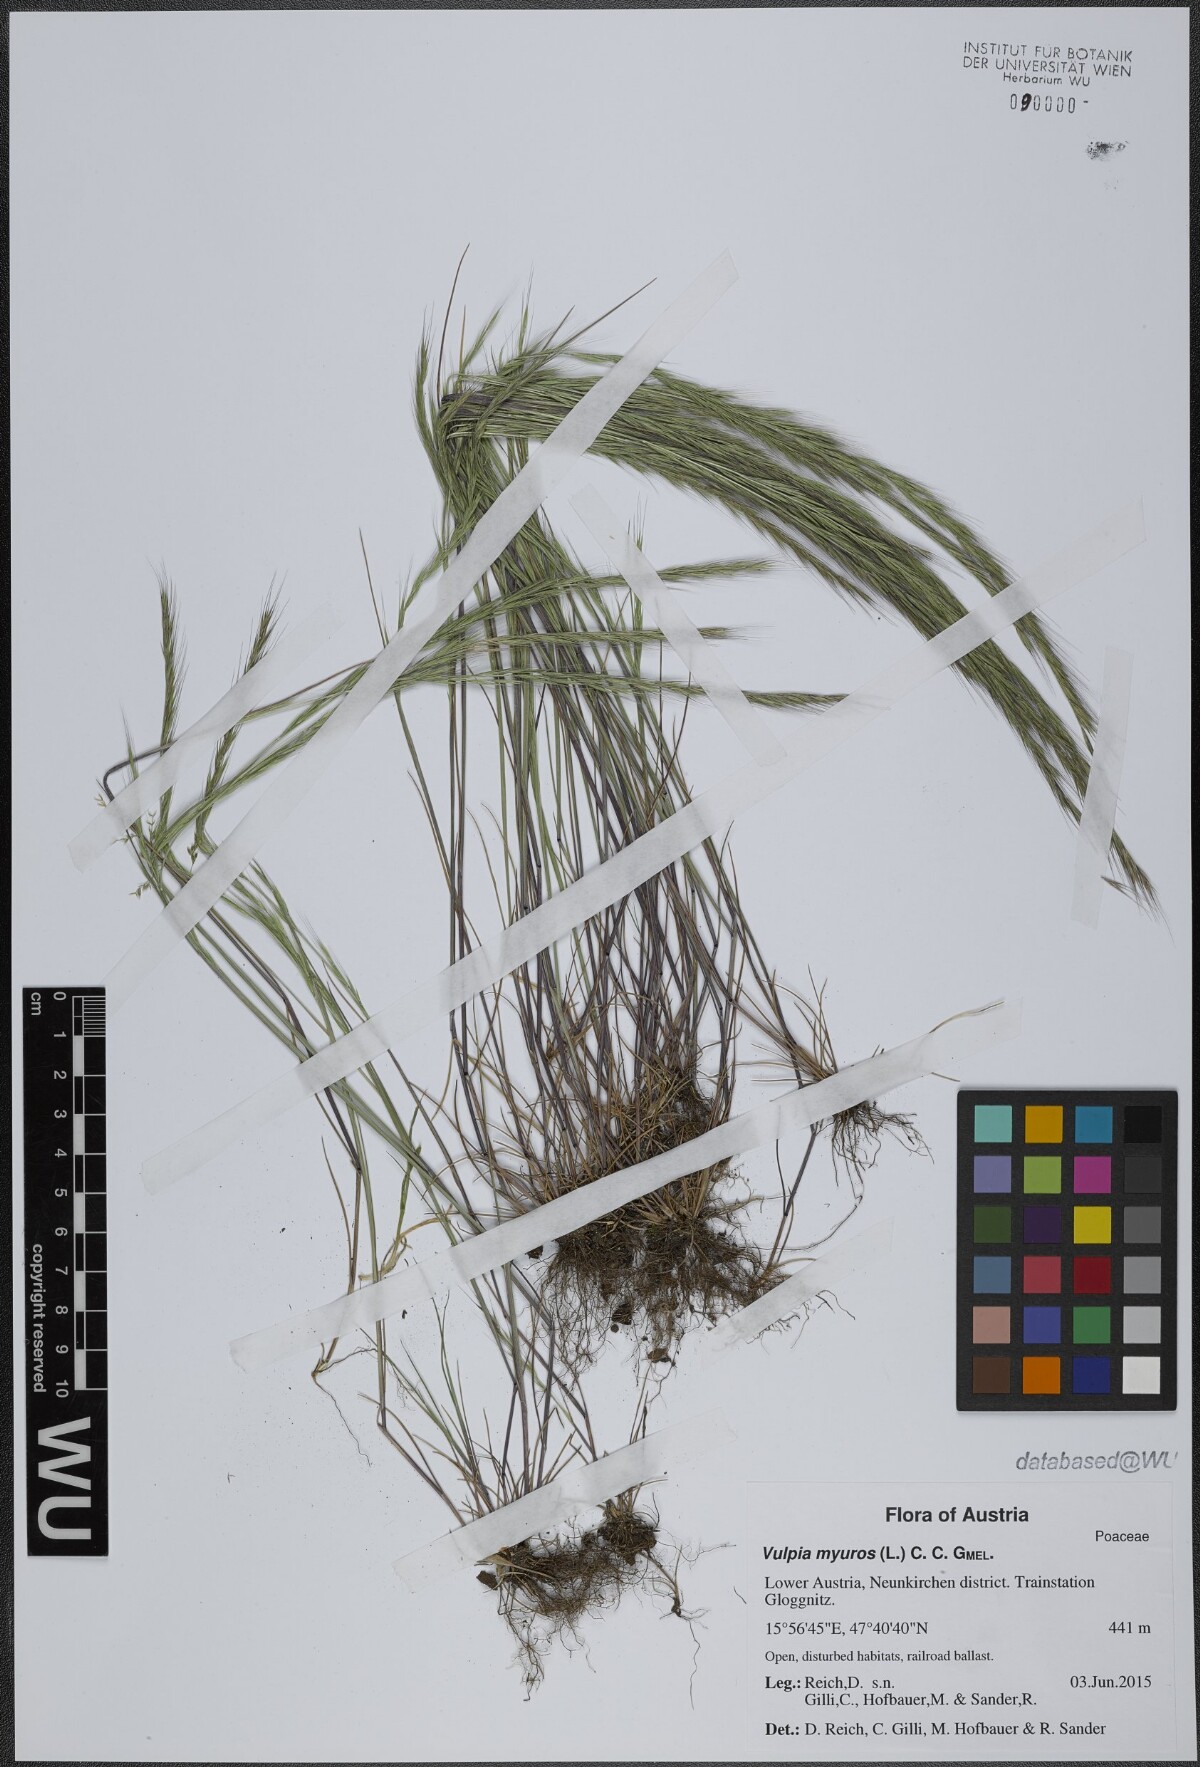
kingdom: Plantae
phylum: Tracheophyta
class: Liliopsida
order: Poales
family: Poaceae
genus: Festuca
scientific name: Festuca myuros
